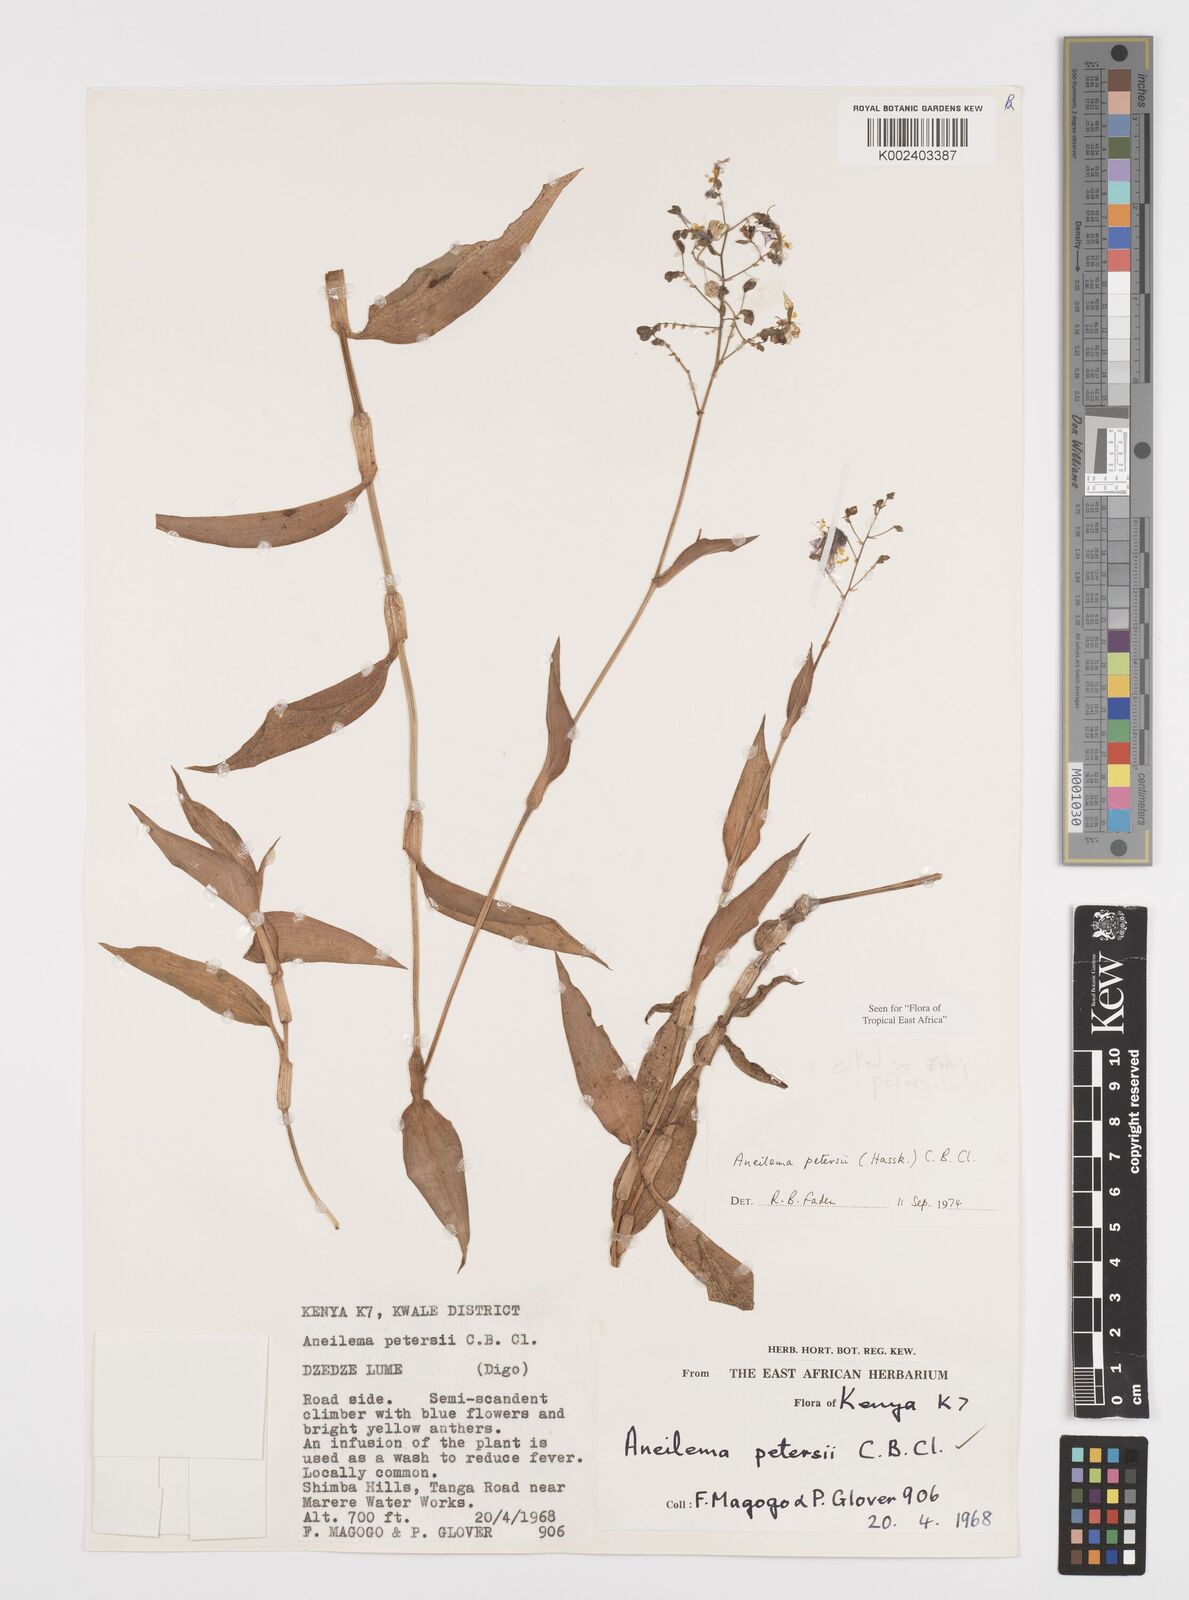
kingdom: Plantae
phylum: Tracheophyta
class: Liliopsida
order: Commelinales
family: Commelinaceae
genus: Aneilema
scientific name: Aneilema petersii
